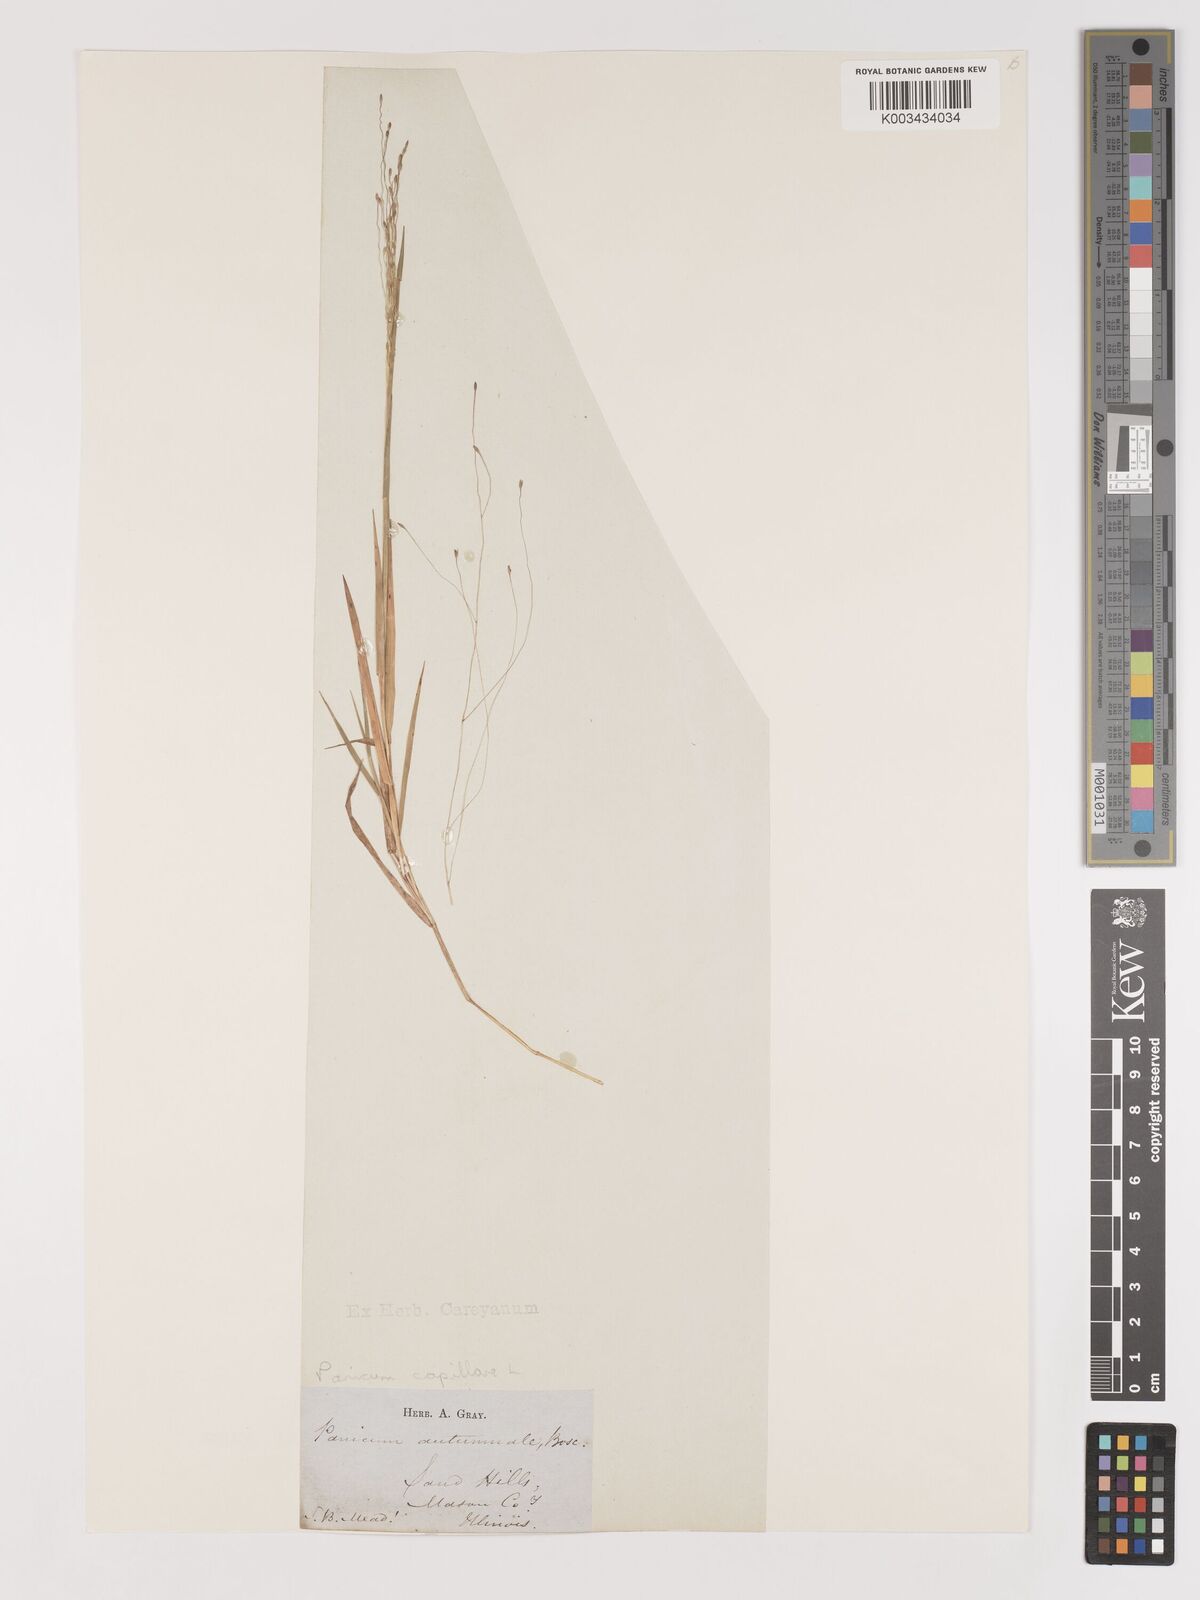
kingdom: Plantae
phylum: Tracheophyta
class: Liliopsida
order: Poales
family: Poaceae
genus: Digitaria
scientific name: Digitaria cognata
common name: Fall witchgrass
